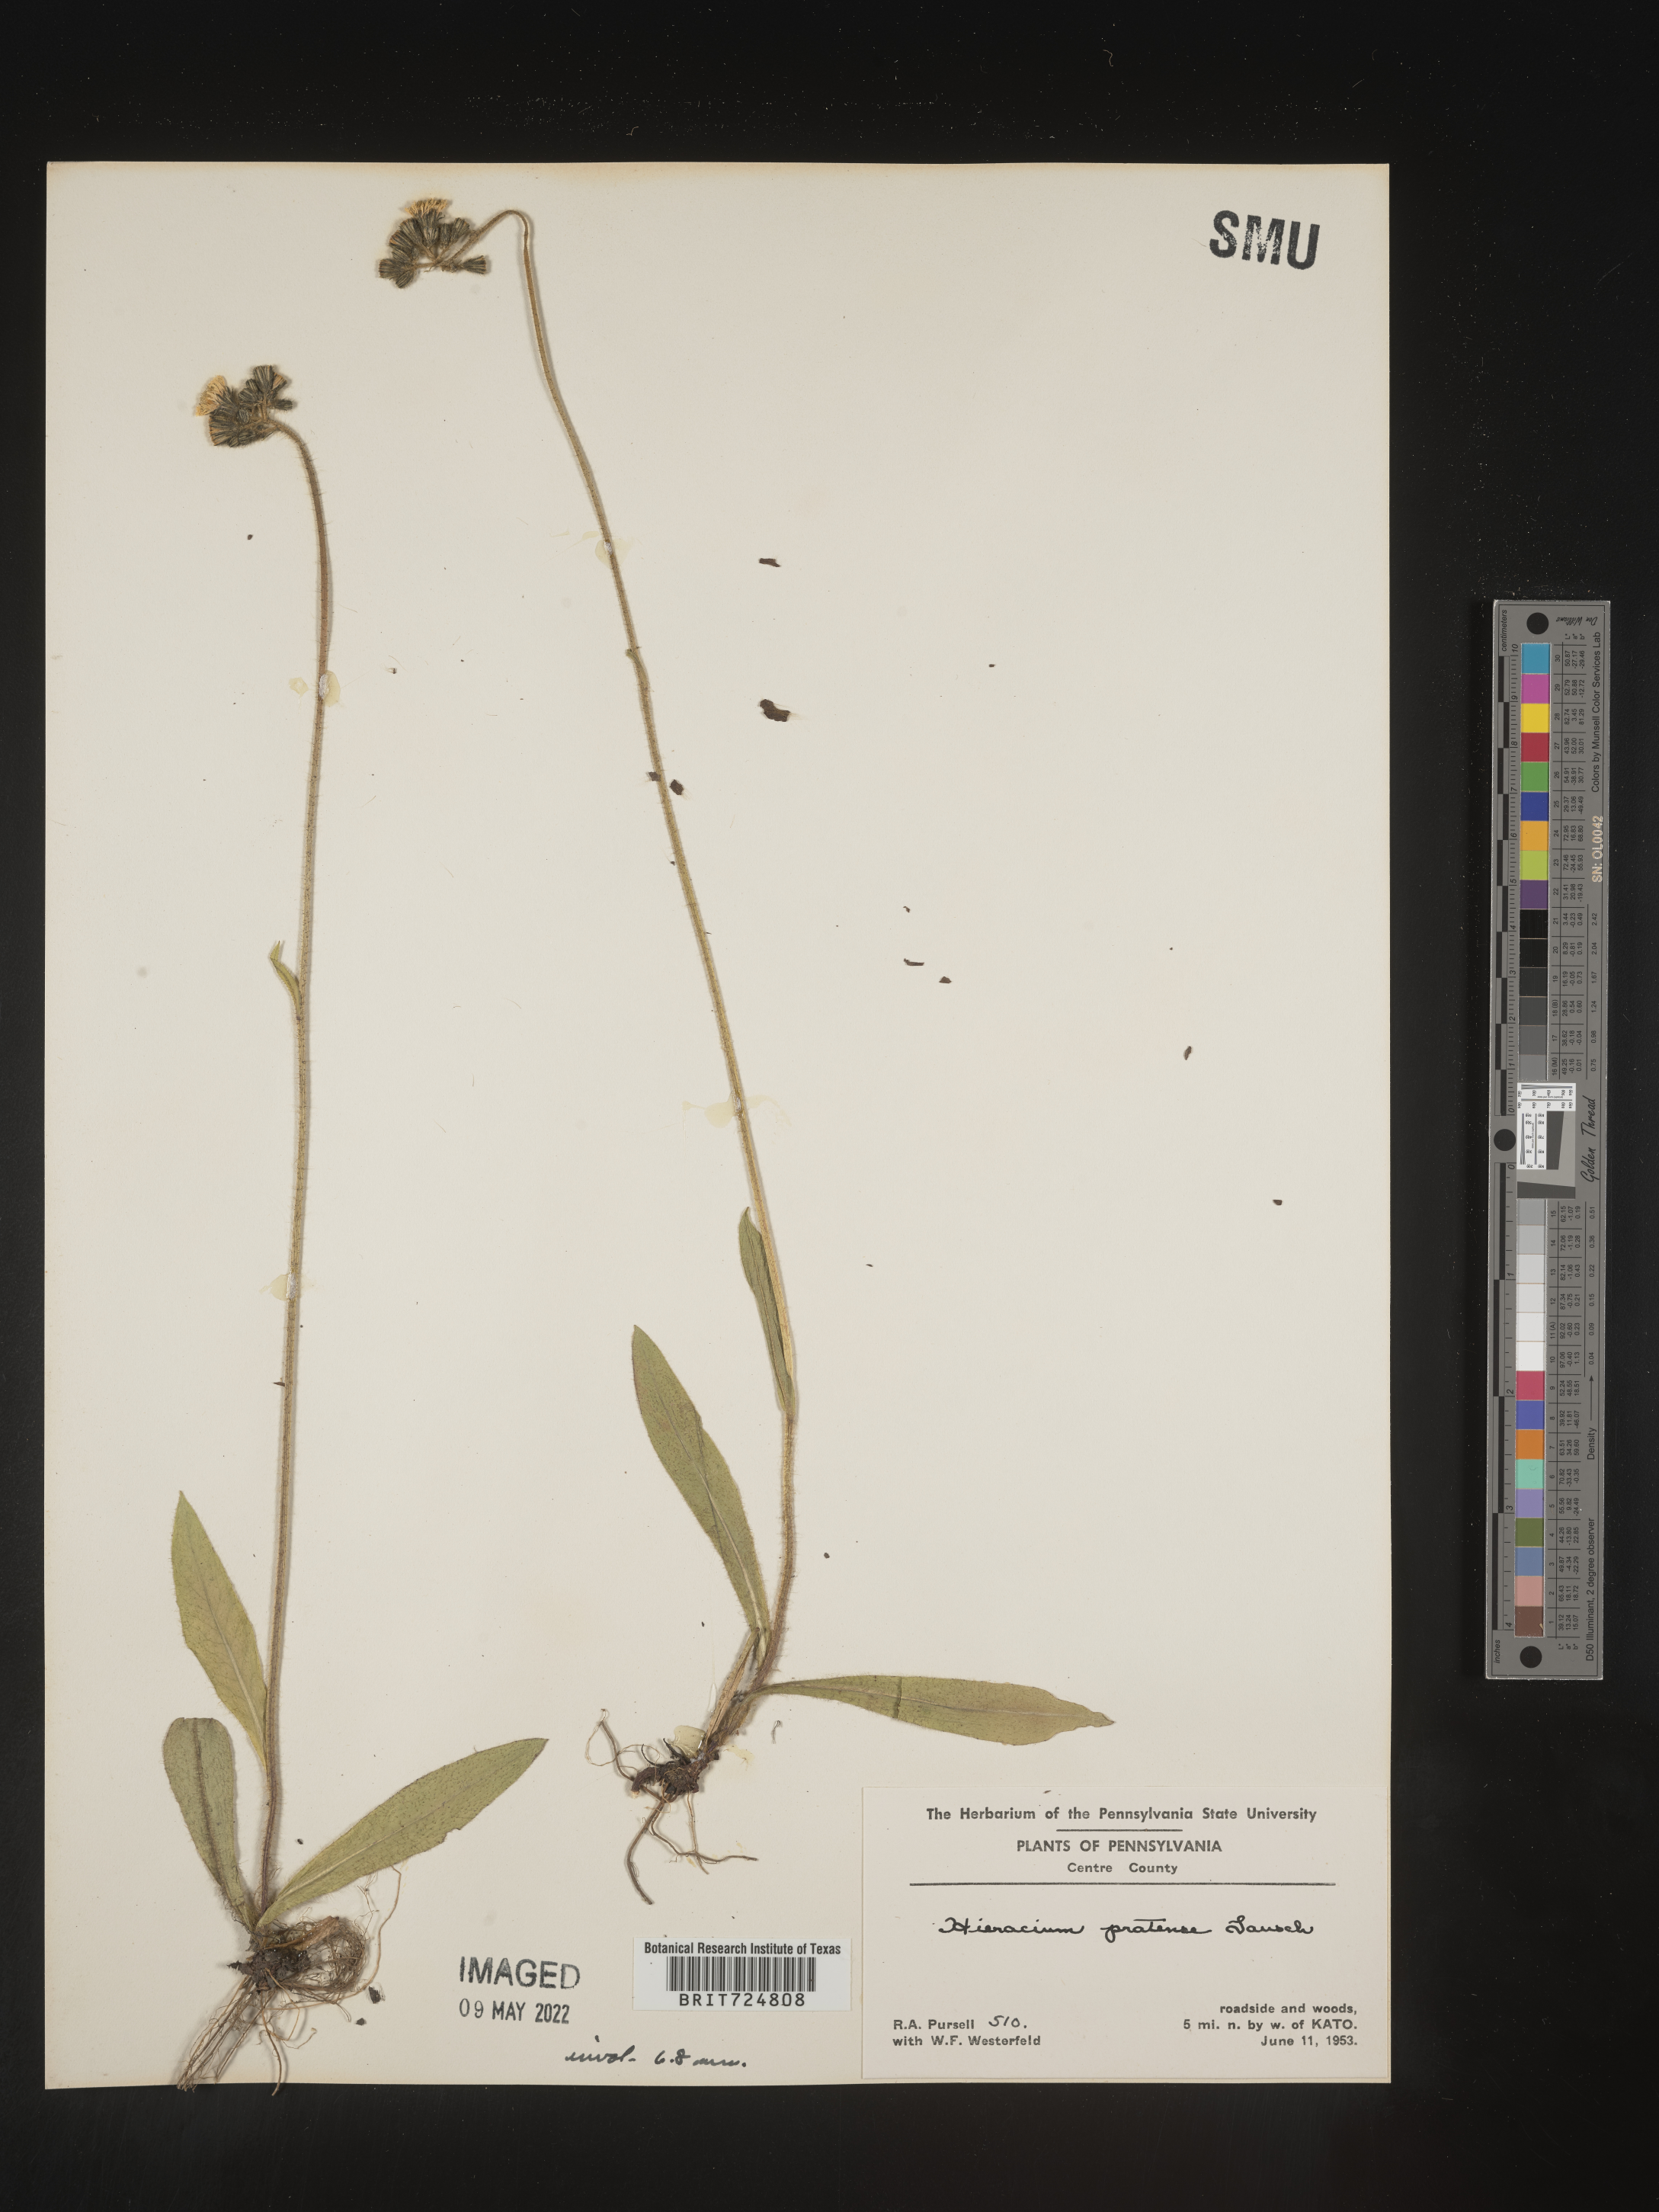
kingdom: Plantae
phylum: Tracheophyta
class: Magnoliopsida
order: Asterales
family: Asteraceae
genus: Hieracium
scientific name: Hieracium
